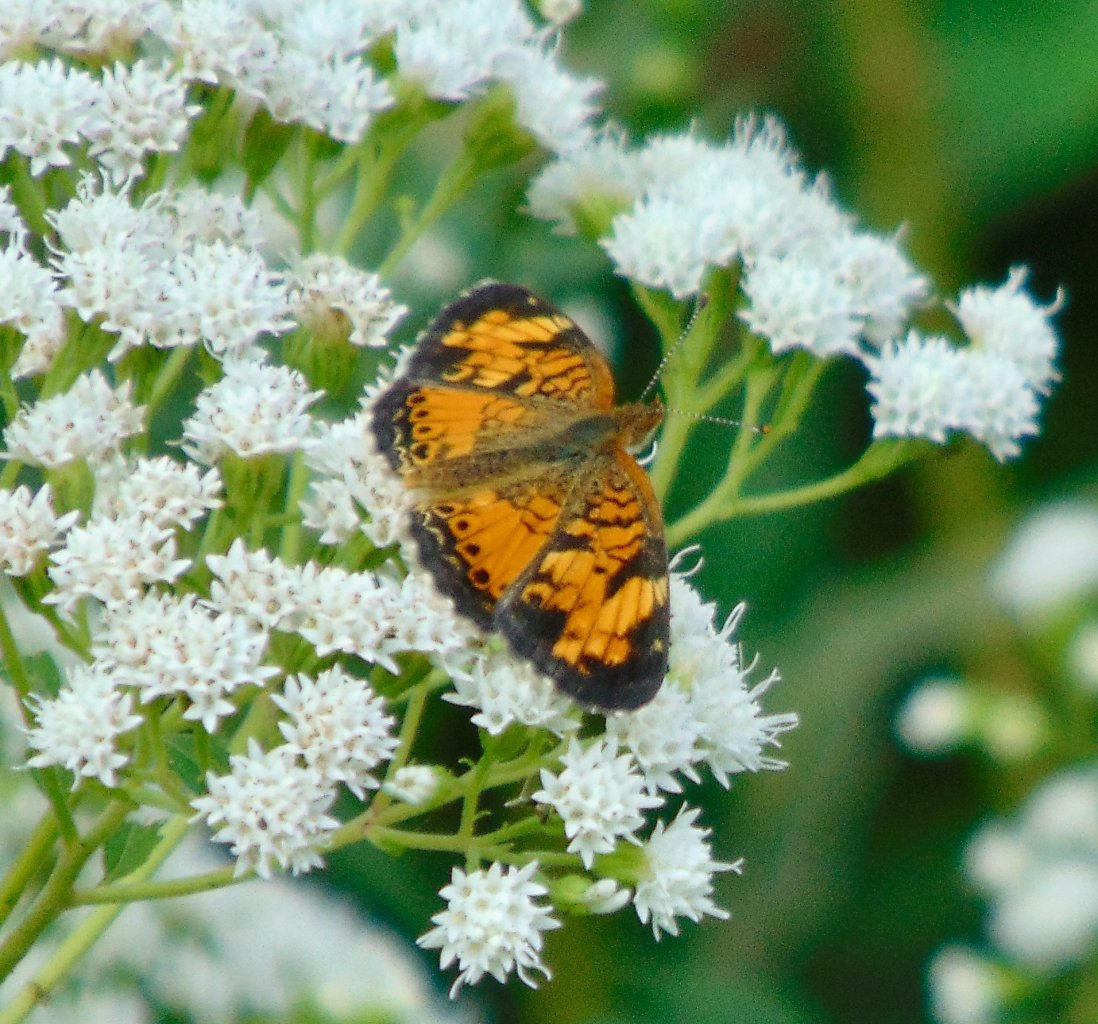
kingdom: Animalia
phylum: Arthropoda
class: Insecta
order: Lepidoptera
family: Nymphalidae
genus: Phyciodes
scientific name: Phyciodes tharos
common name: Pearl Crescent
